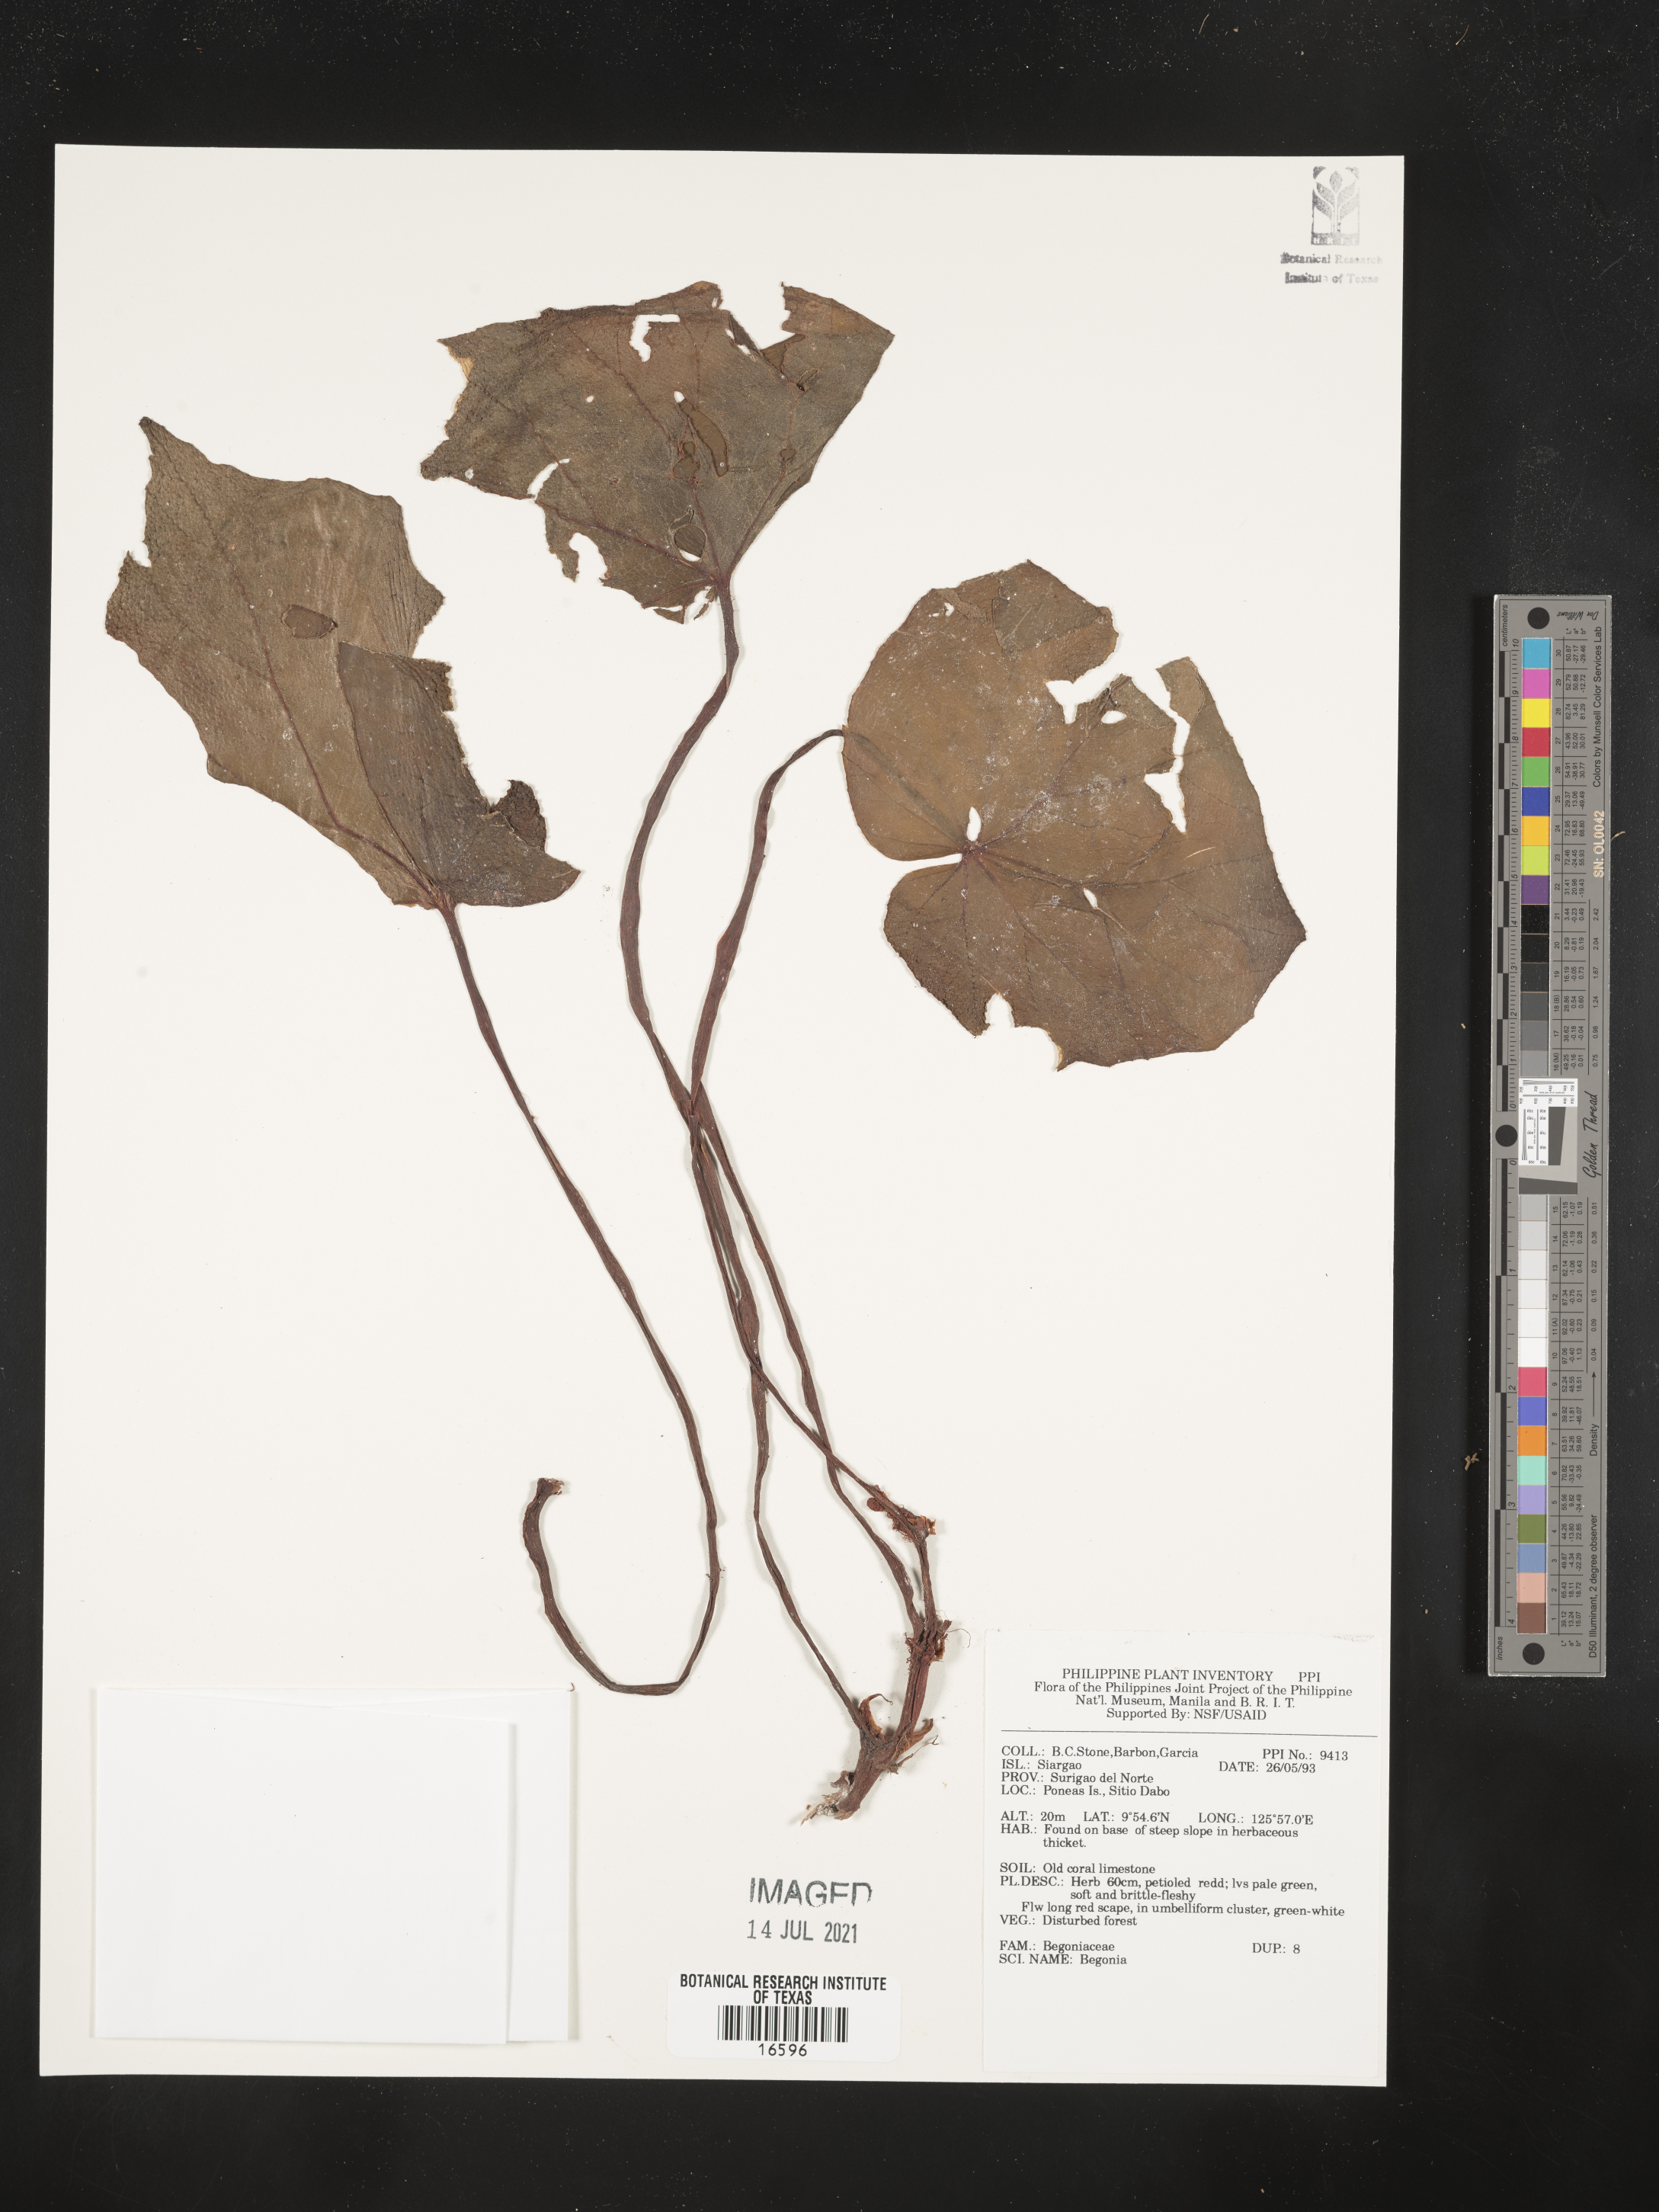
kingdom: Plantae
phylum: Tracheophyta
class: Magnoliopsida
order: Cucurbitales
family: Begoniaceae
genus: Begonia
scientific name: Begonia
